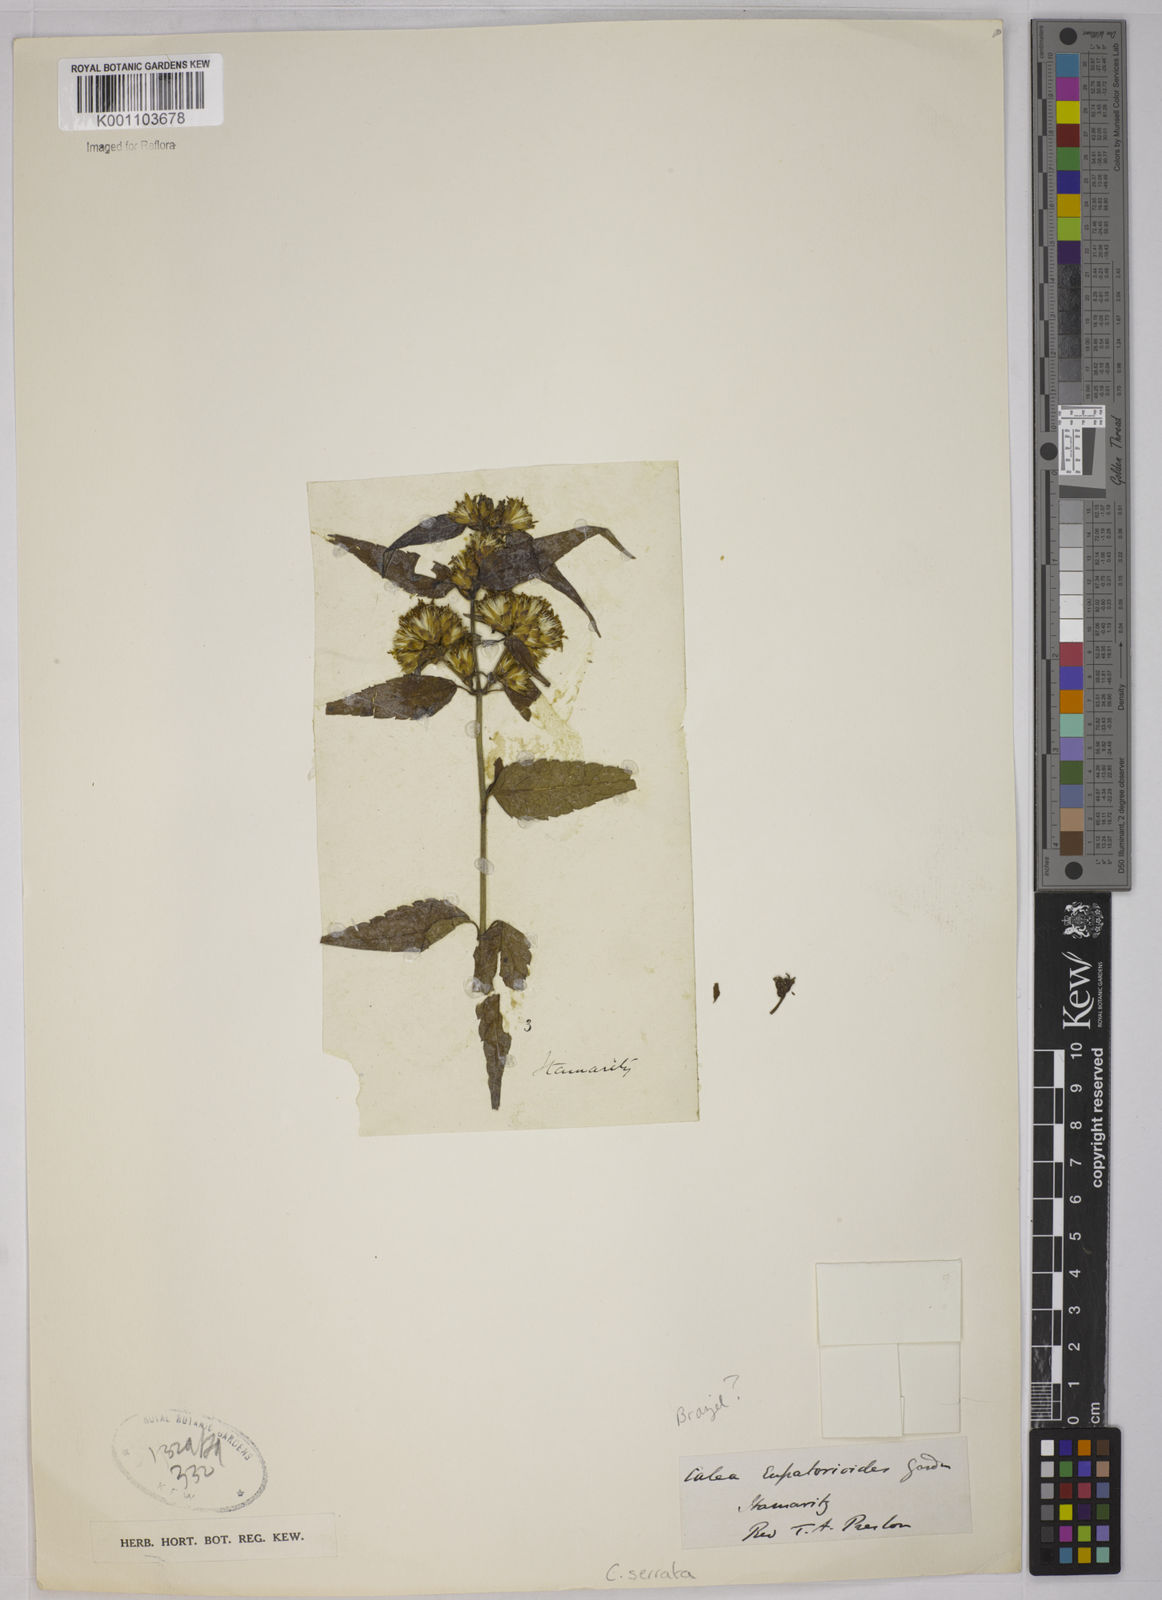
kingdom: Plantae
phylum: Tracheophyta
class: Magnoliopsida
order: Asterales
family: Asteraceae
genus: Calea
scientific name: Calea serrata
